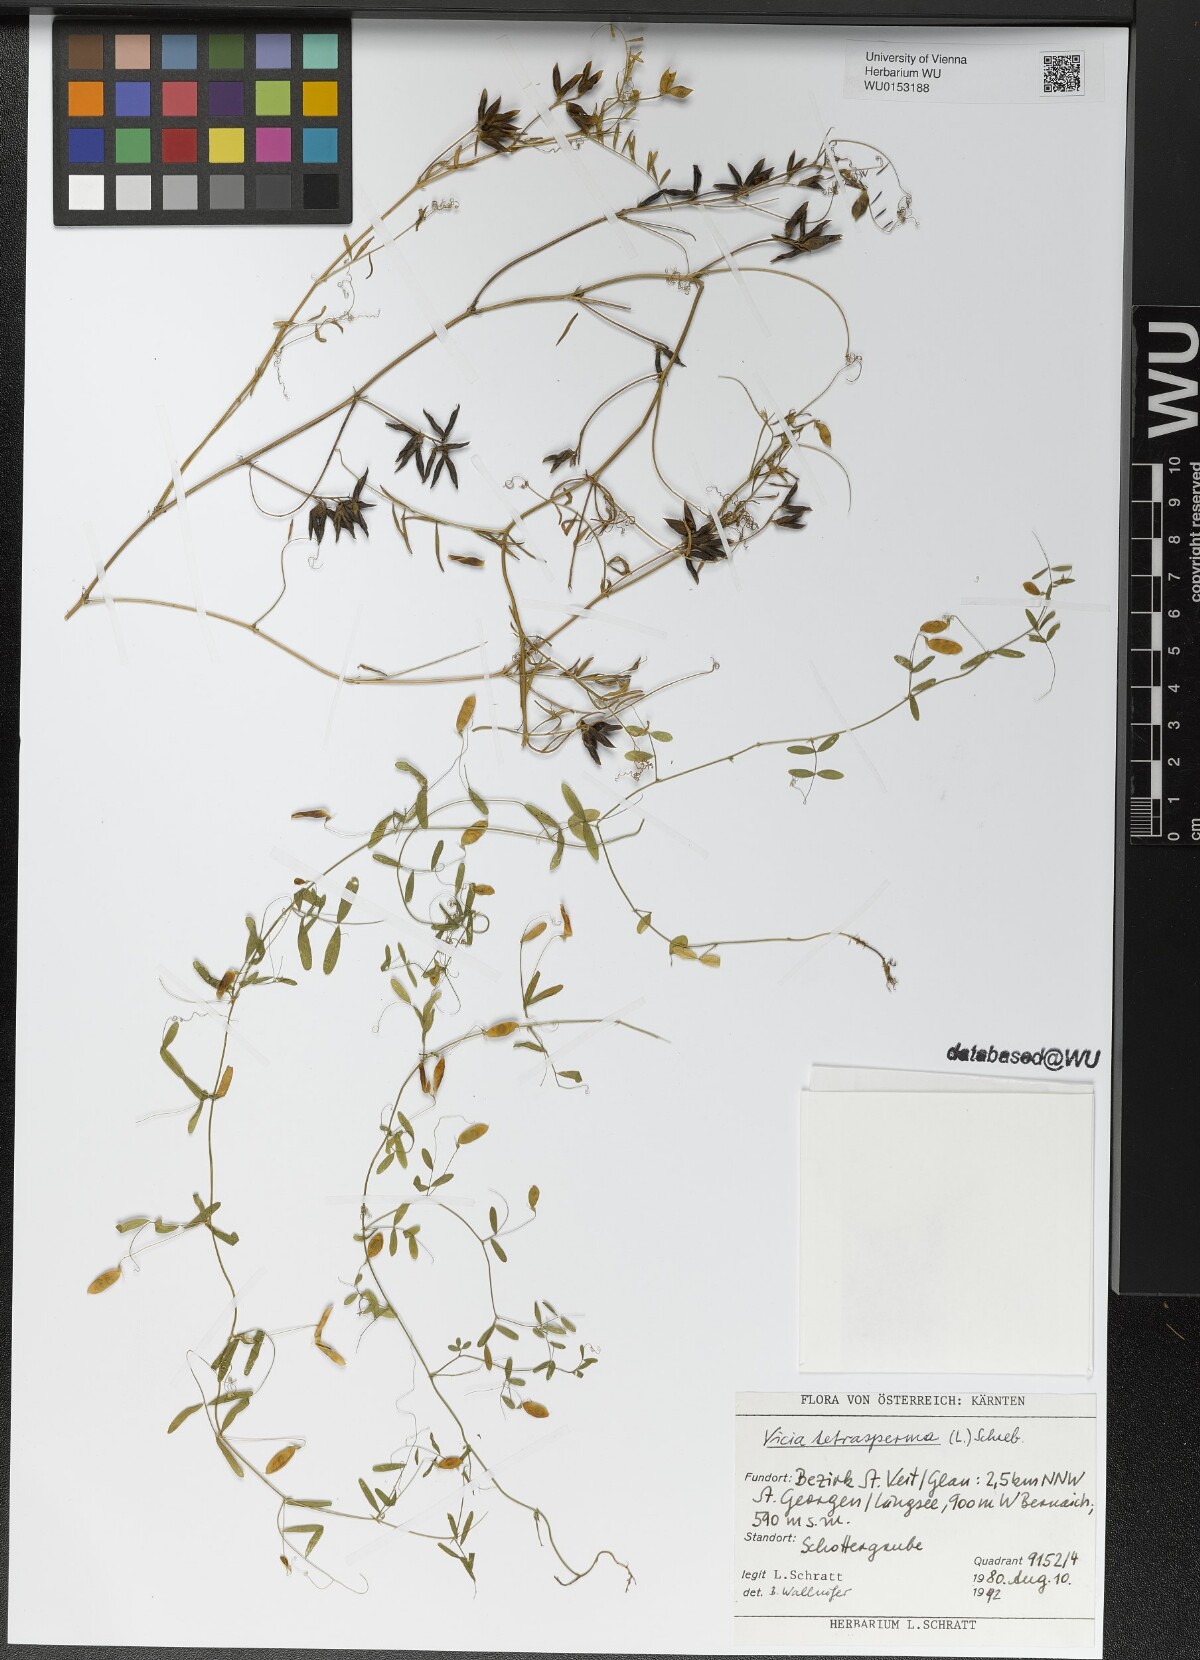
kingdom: Plantae
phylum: Tracheophyta
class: Magnoliopsida
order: Fabales
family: Fabaceae
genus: Vicia
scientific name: Vicia tetrasperma
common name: Smooth tare
